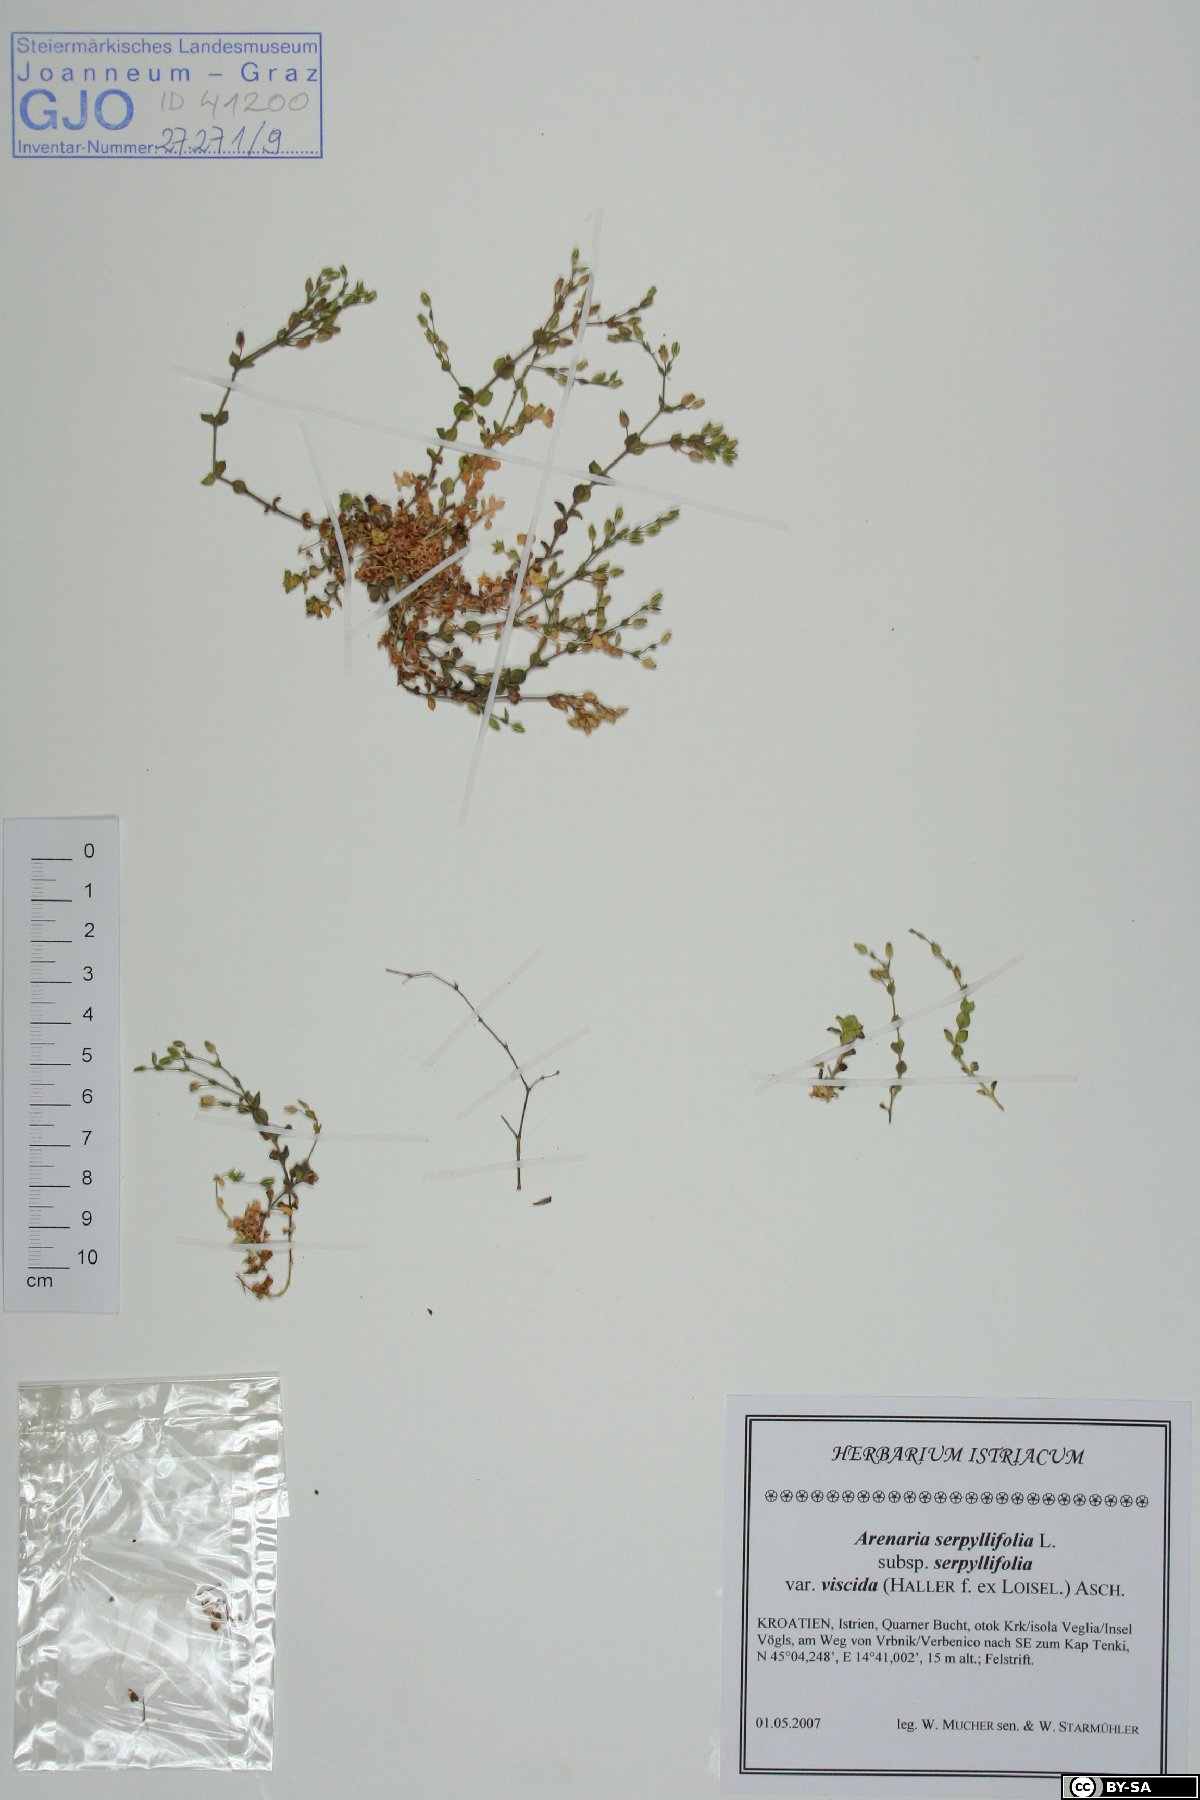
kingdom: Plantae
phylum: Tracheophyta
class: Magnoliopsida
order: Caryophyllales
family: Caryophyllaceae
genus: Arenaria
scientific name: Arenaria serpyllifolia
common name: Thyme-leaved sandwort
